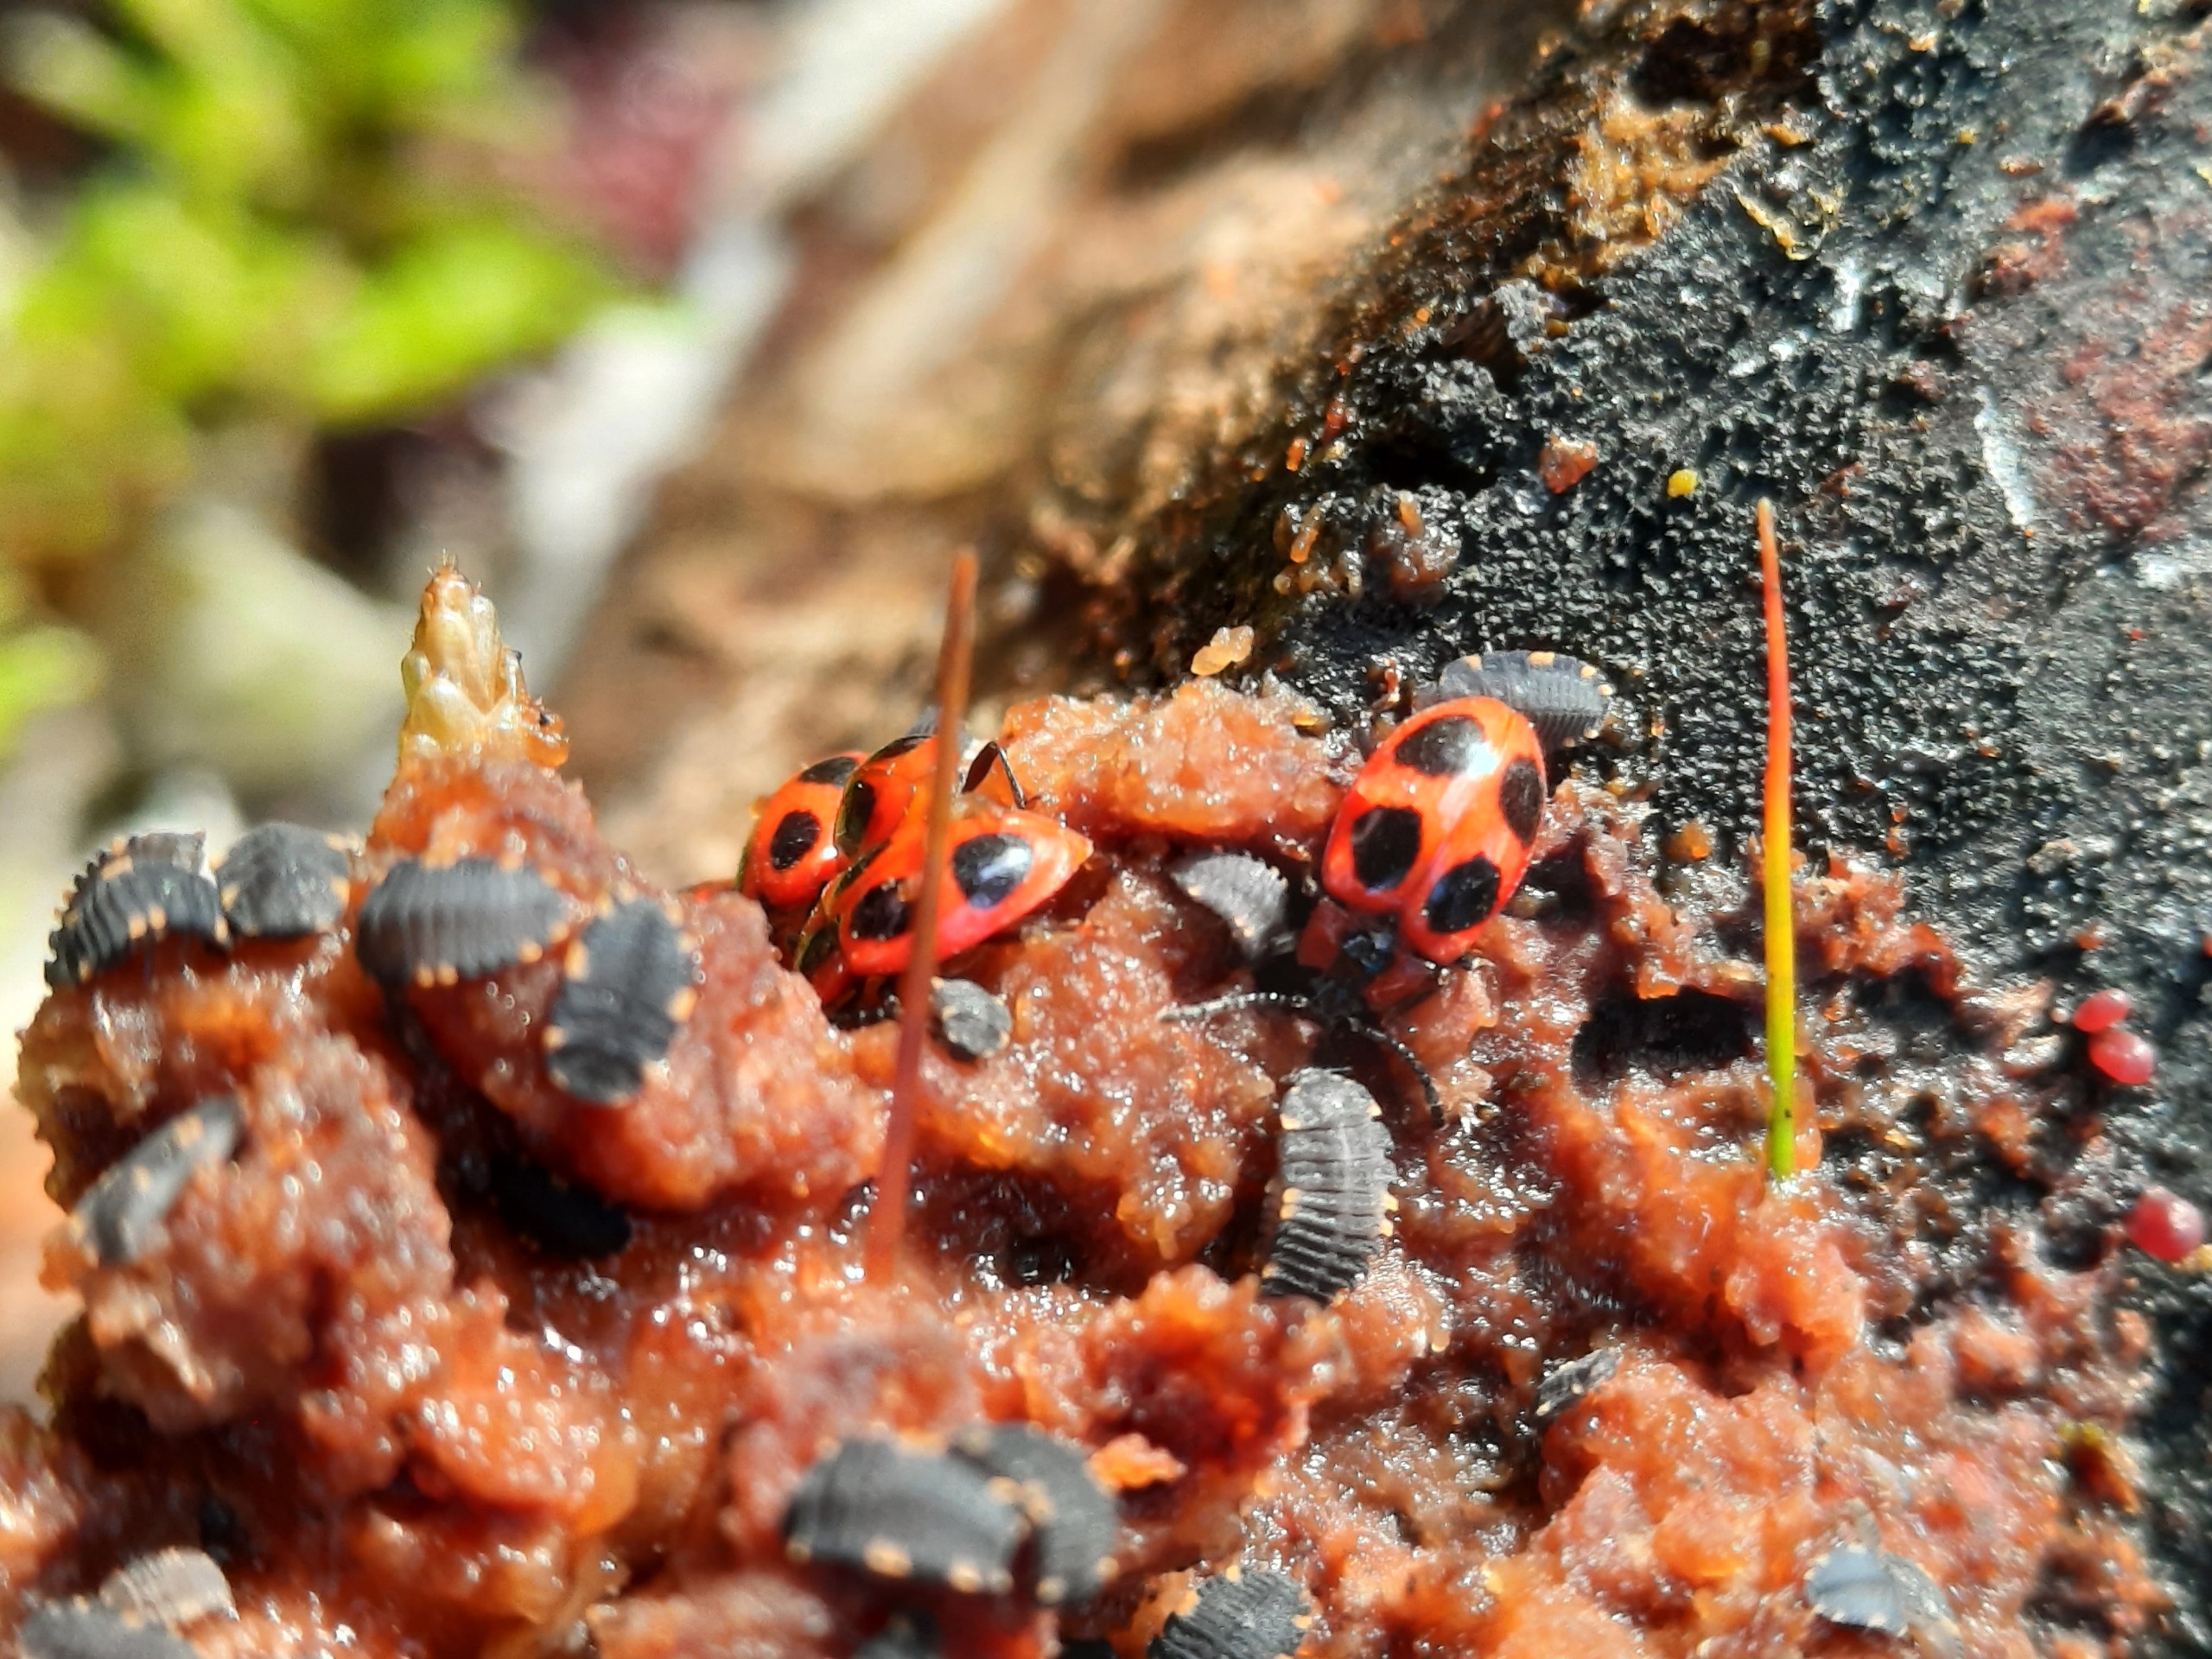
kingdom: Animalia
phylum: Arthropoda
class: Insecta
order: Coleoptera
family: Endomychidae
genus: Endomychus
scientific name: Endomychus coccineus
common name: Skarlagensvampehøne
